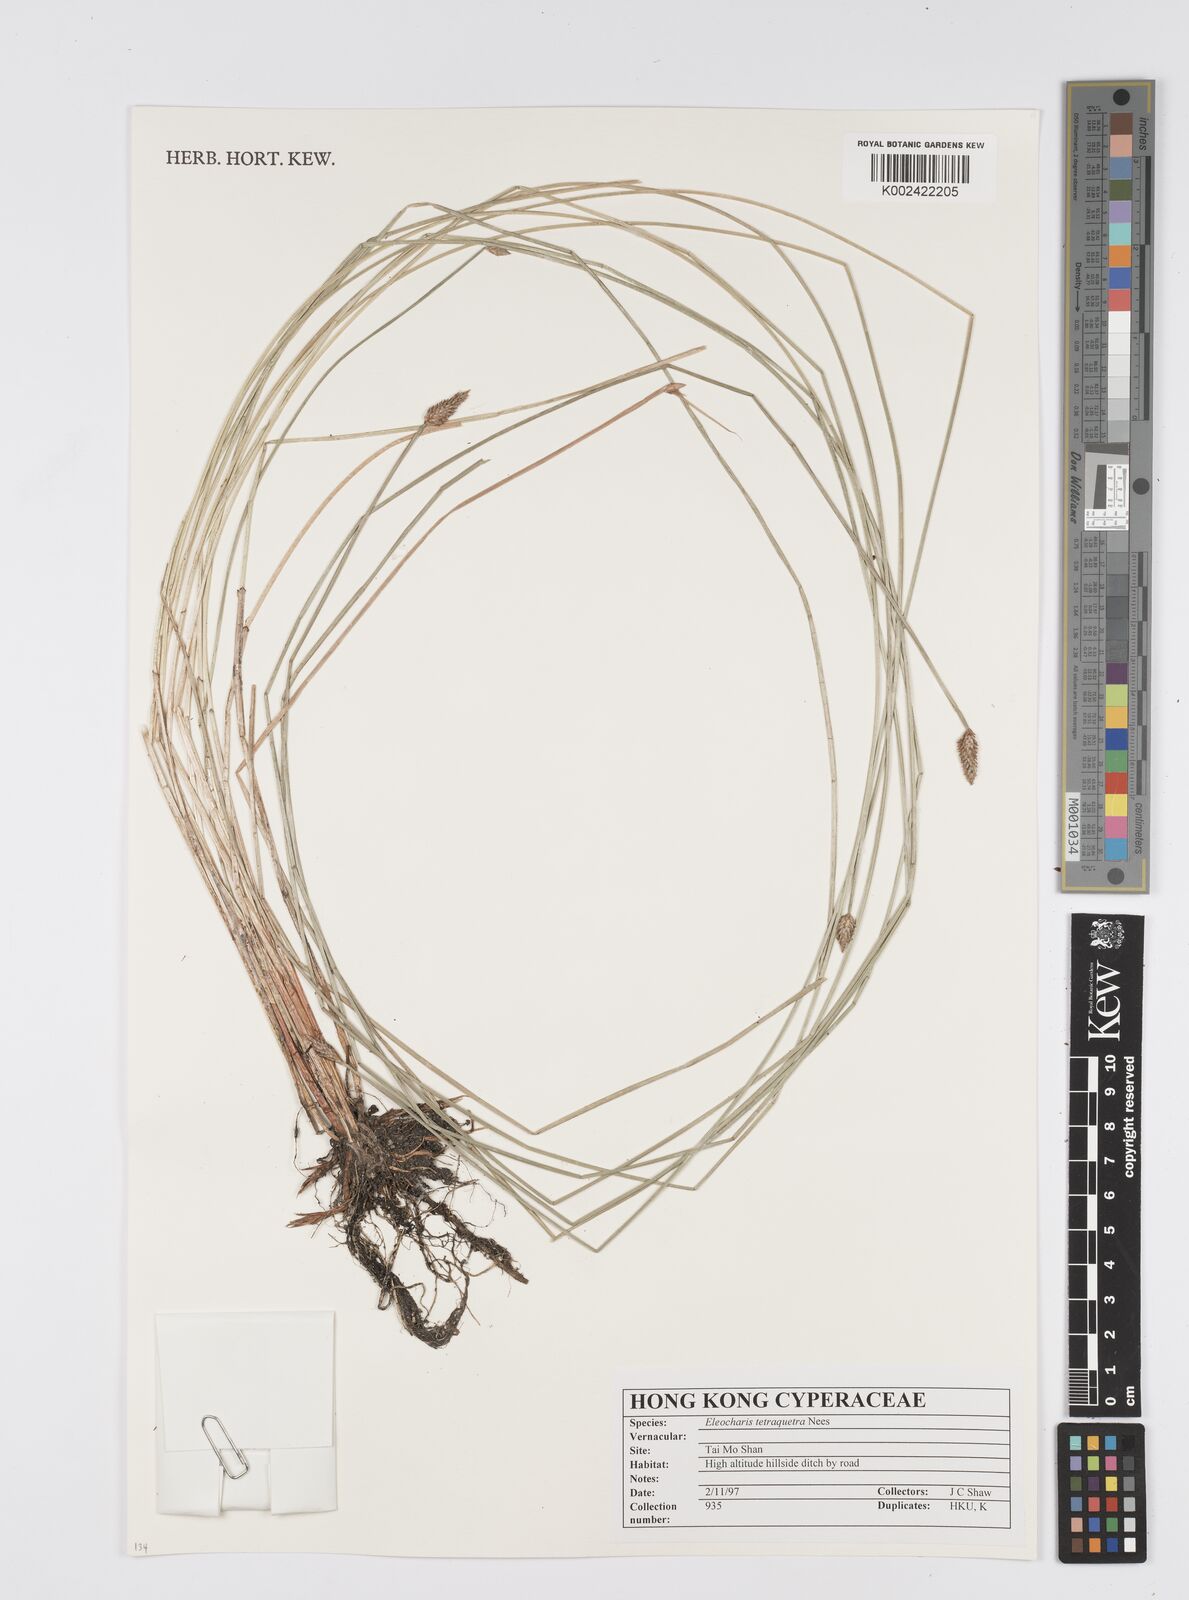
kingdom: Plantae
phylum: Tracheophyta
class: Liliopsida
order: Poales
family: Cyperaceae
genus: Eleocharis
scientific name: Eleocharis tetraquetra
